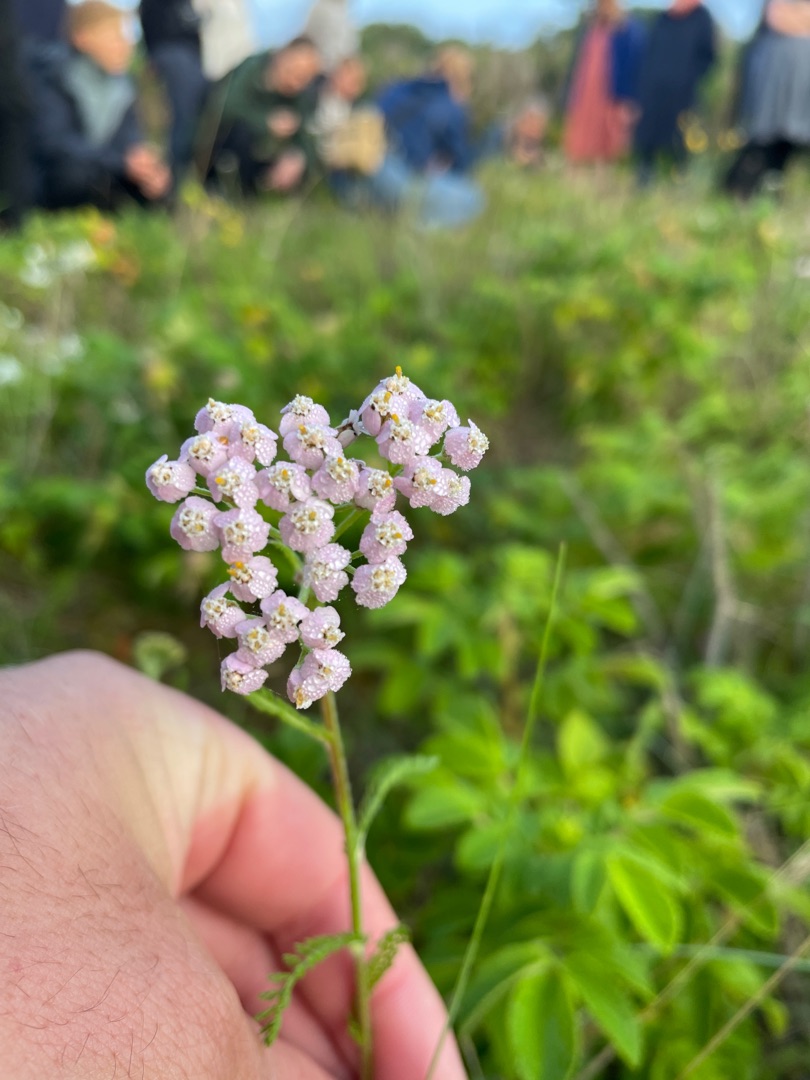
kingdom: Plantae
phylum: Tracheophyta
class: Magnoliopsida
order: Asterales
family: Asteraceae
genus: Achillea
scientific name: Achillea millefolium
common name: Almindelig røllike
